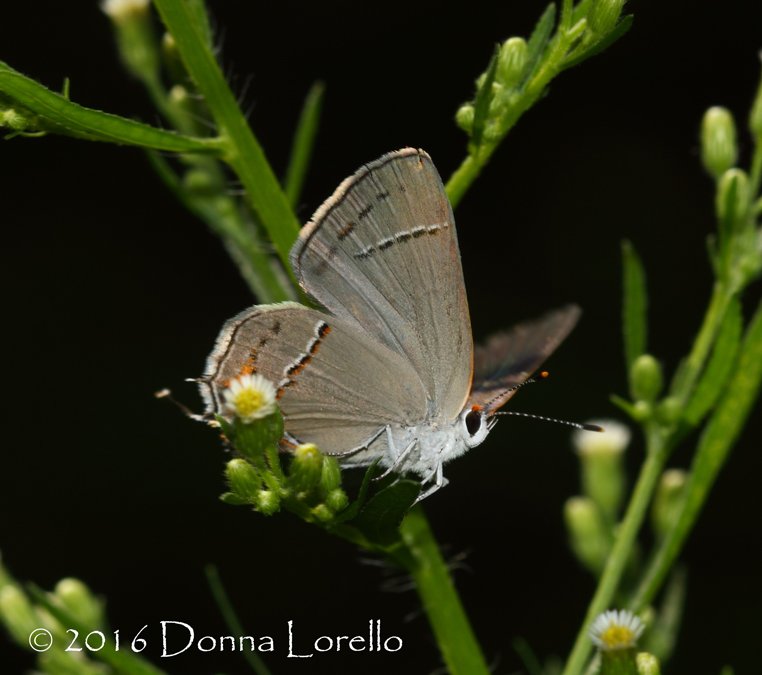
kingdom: Animalia
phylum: Arthropoda
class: Insecta
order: Lepidoptera
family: Lycaenidae
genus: Strymon
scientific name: Strymon melinus
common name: Gray Hairstreak
